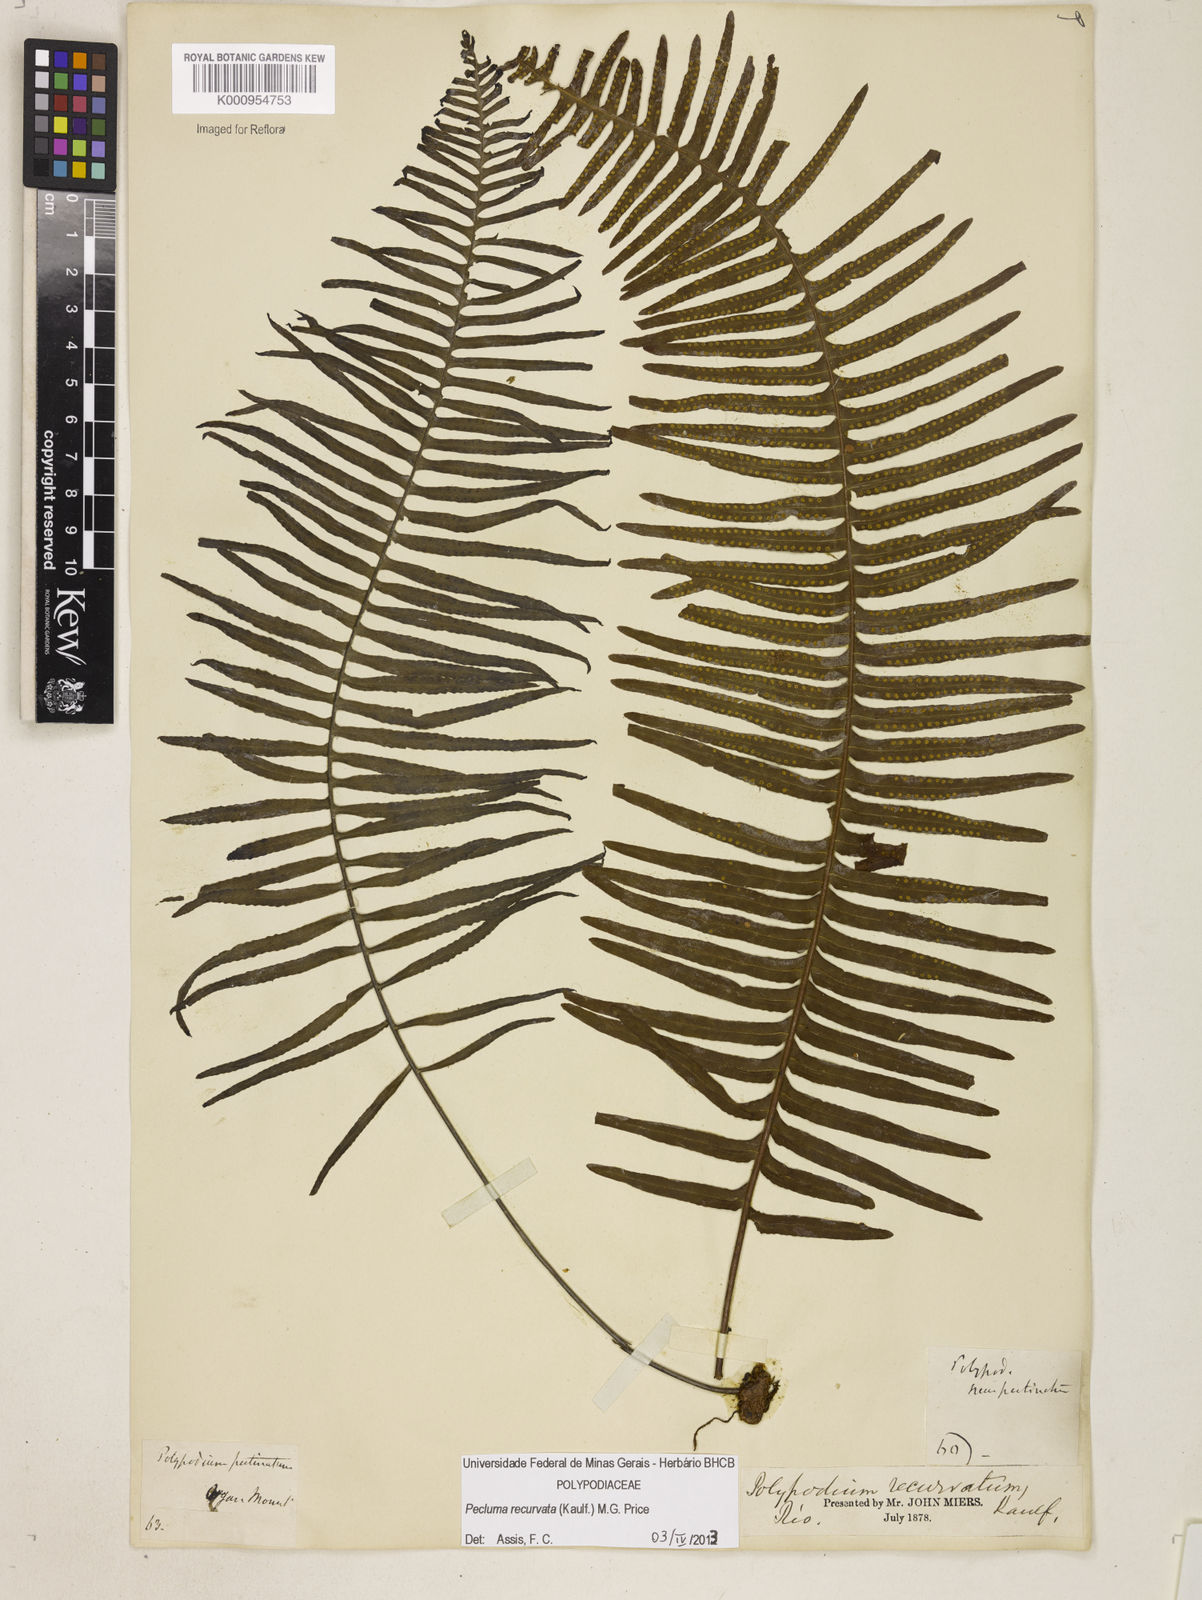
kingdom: Plantae
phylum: Tracheophyta
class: Polypodiopsida
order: Polypodiales
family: Polypodiaceae
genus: Pecluma
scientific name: Pecluma recurvata
